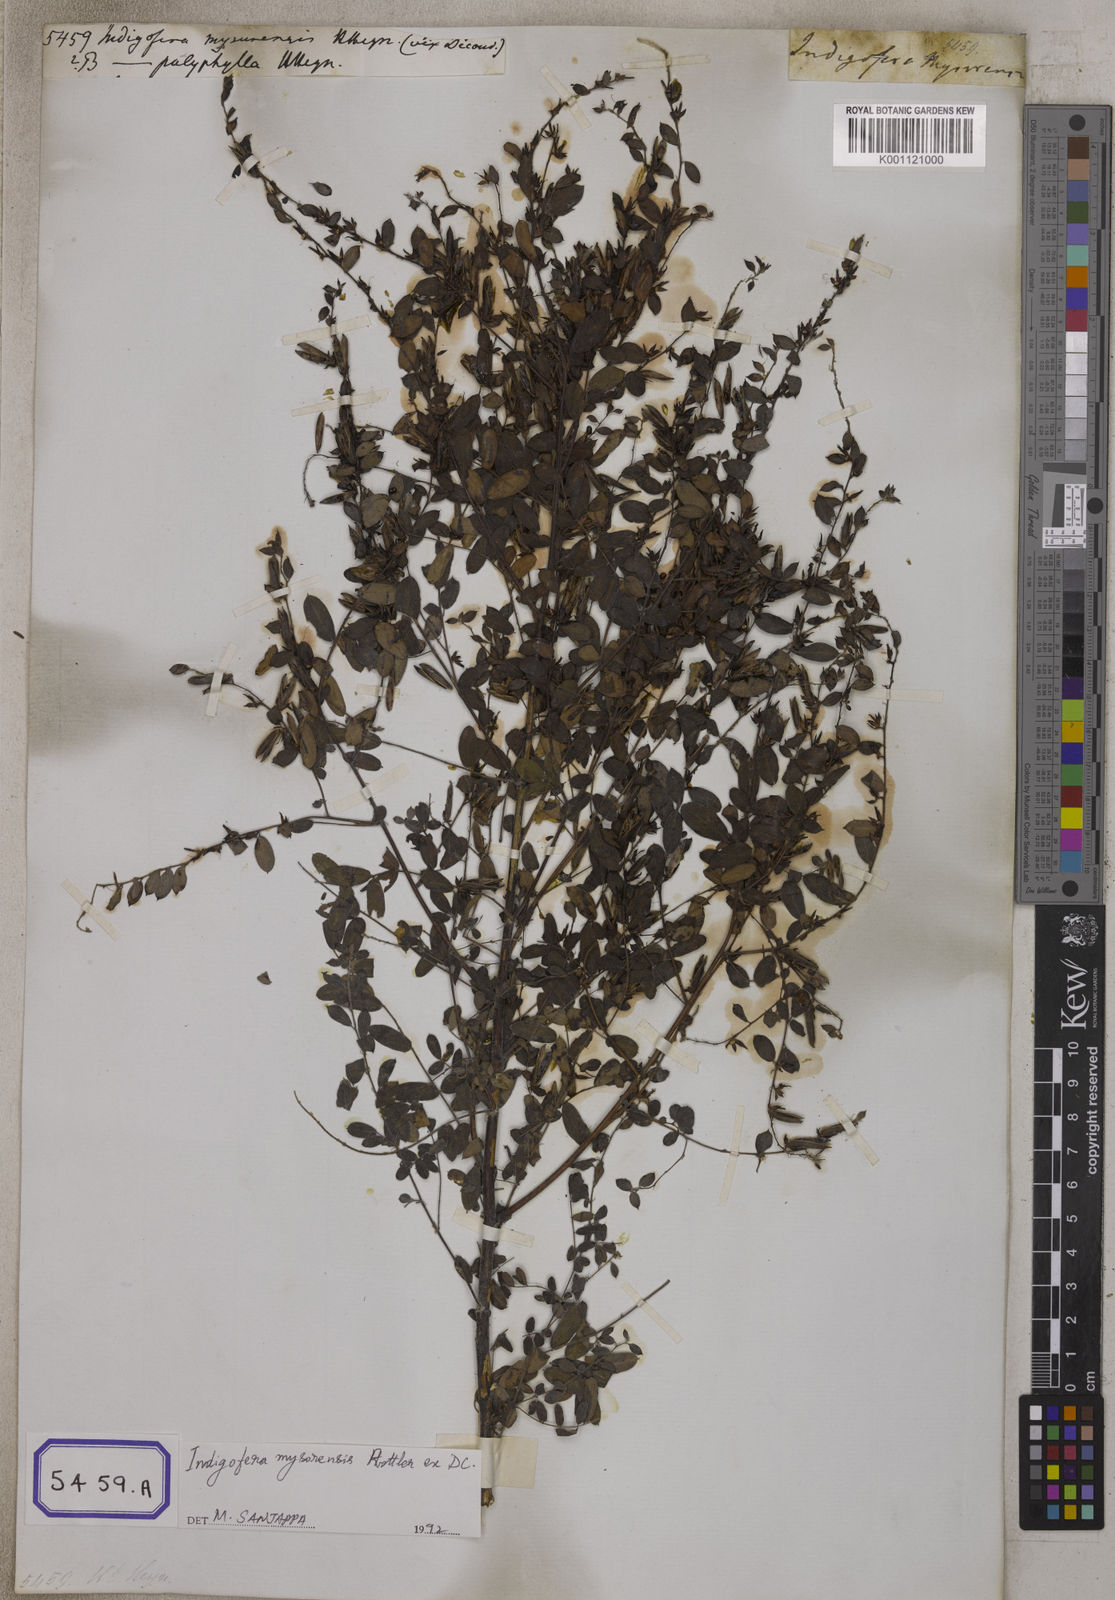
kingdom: Plantae
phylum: Tracheophyta
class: Magnoliopsida
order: Fabales
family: Fabaceae
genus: Indigofera
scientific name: Indigofera mysorensis
